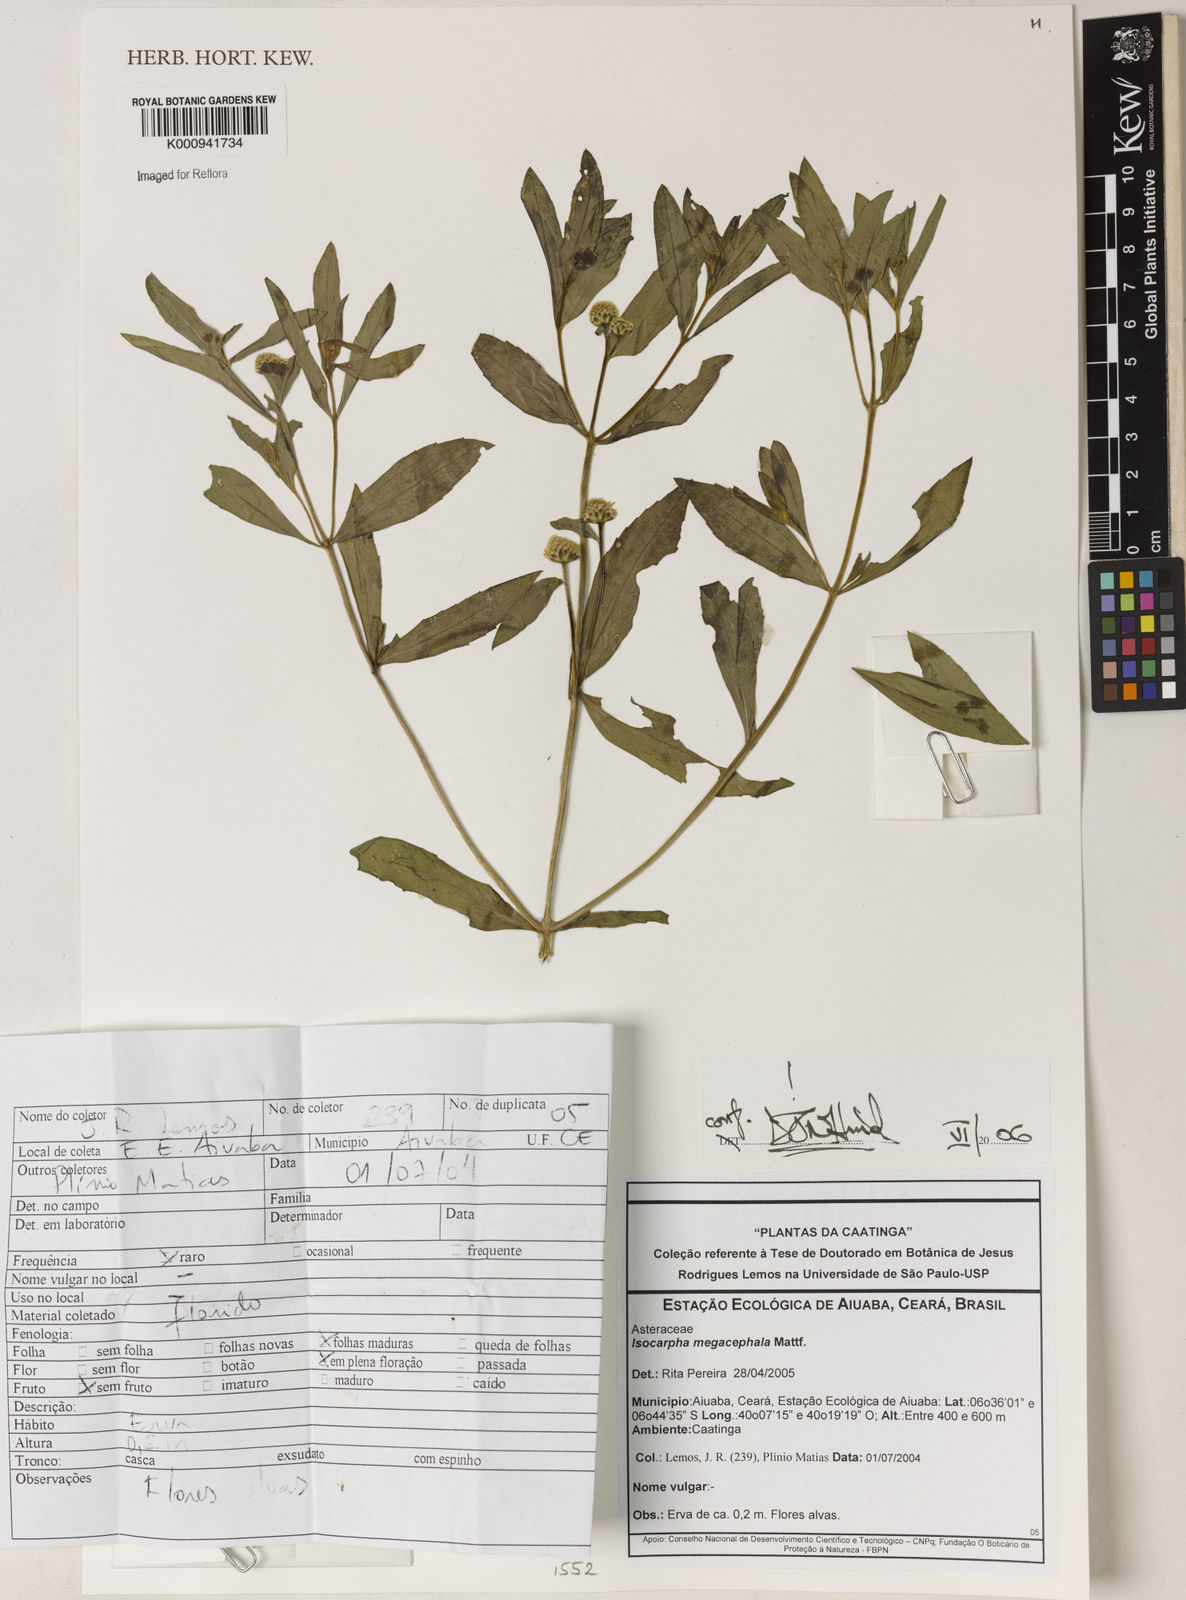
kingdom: Plantae
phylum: Tracheophyta
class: Magnoliopsida
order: Asterales
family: Asteraceae
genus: Isocarpha
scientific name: Isocarpha megacephala
